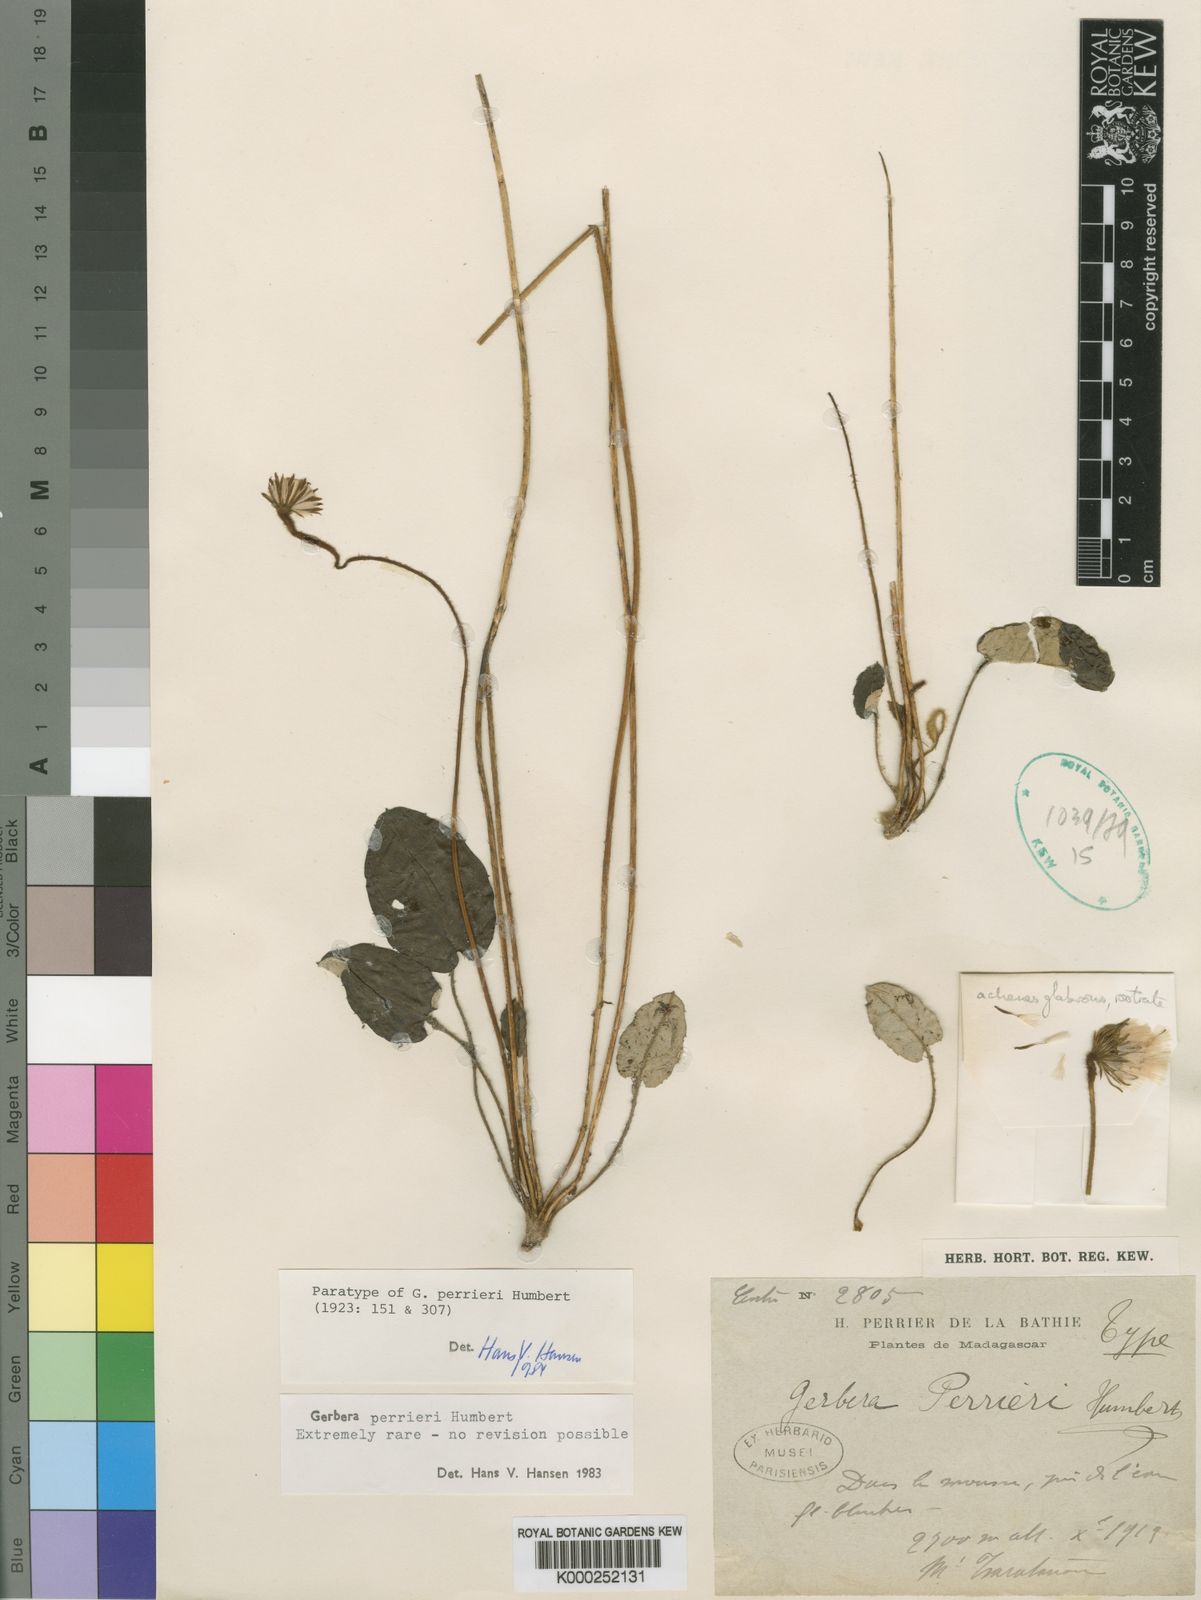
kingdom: Plantae
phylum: Tracheophyta
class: Magnoliopsida
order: Asterales
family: Asteraceae
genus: Gerbera
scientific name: Gerbera perrieri
